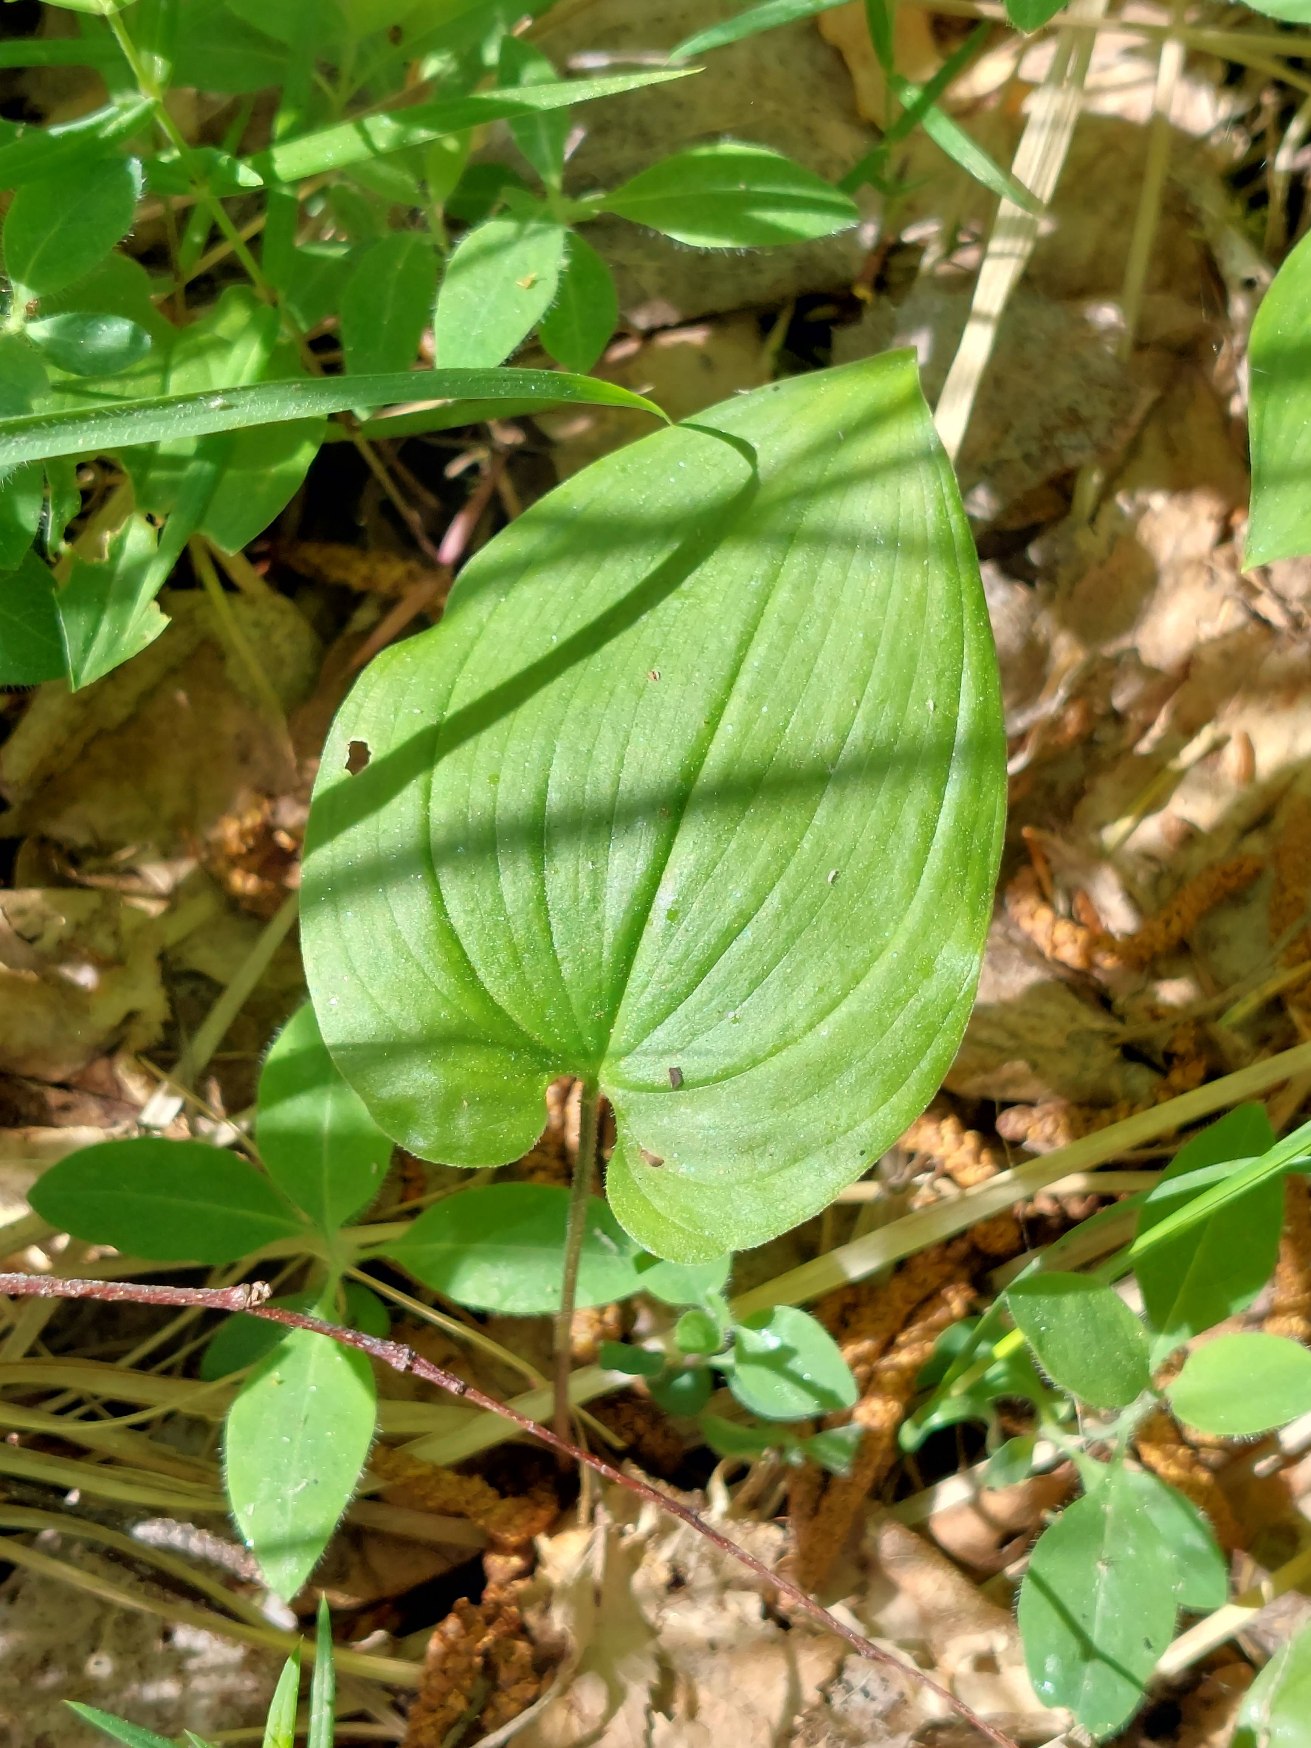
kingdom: Plantae
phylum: Tracheophyta
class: Liliopsida
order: Asparagales
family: Asparagaceae
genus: Maianthemum
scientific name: Maianthemum bifolium
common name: Majblomst
